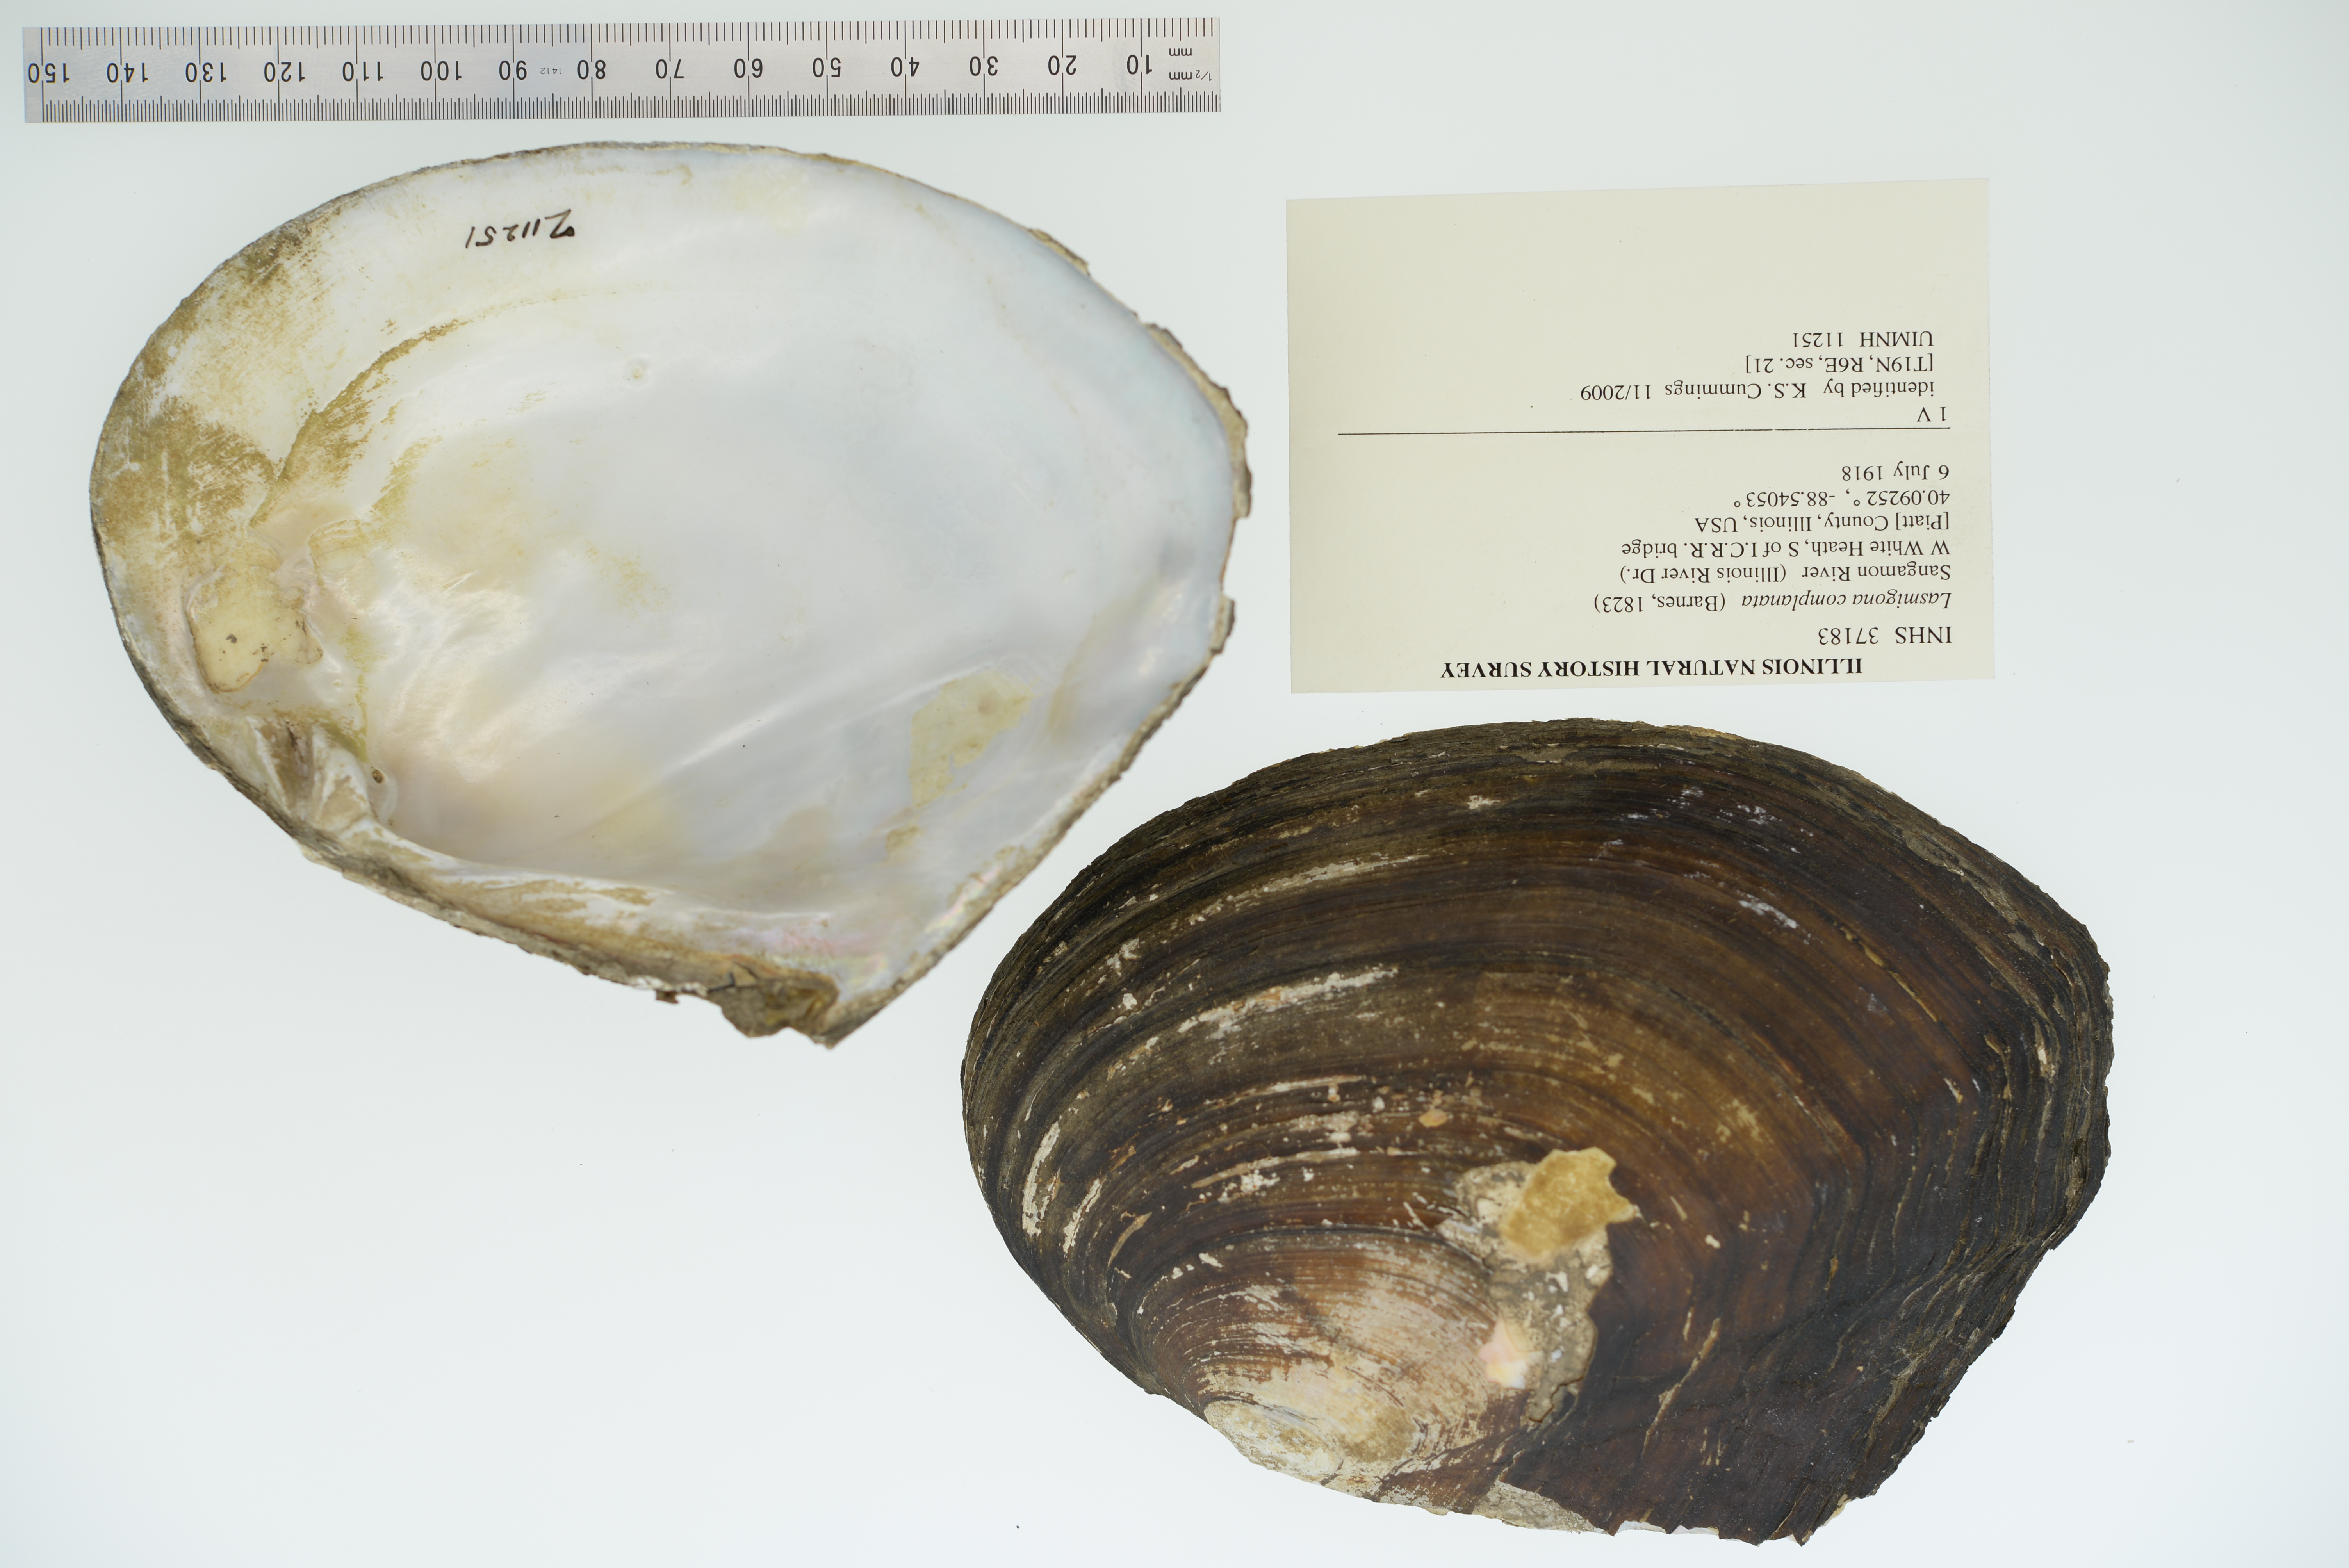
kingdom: Animalia
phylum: Mollusca
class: Bivalvia
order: Unionida
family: Unionidae
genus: Lasmigona
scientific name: Lasmigona complanata
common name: White heelsplitter
